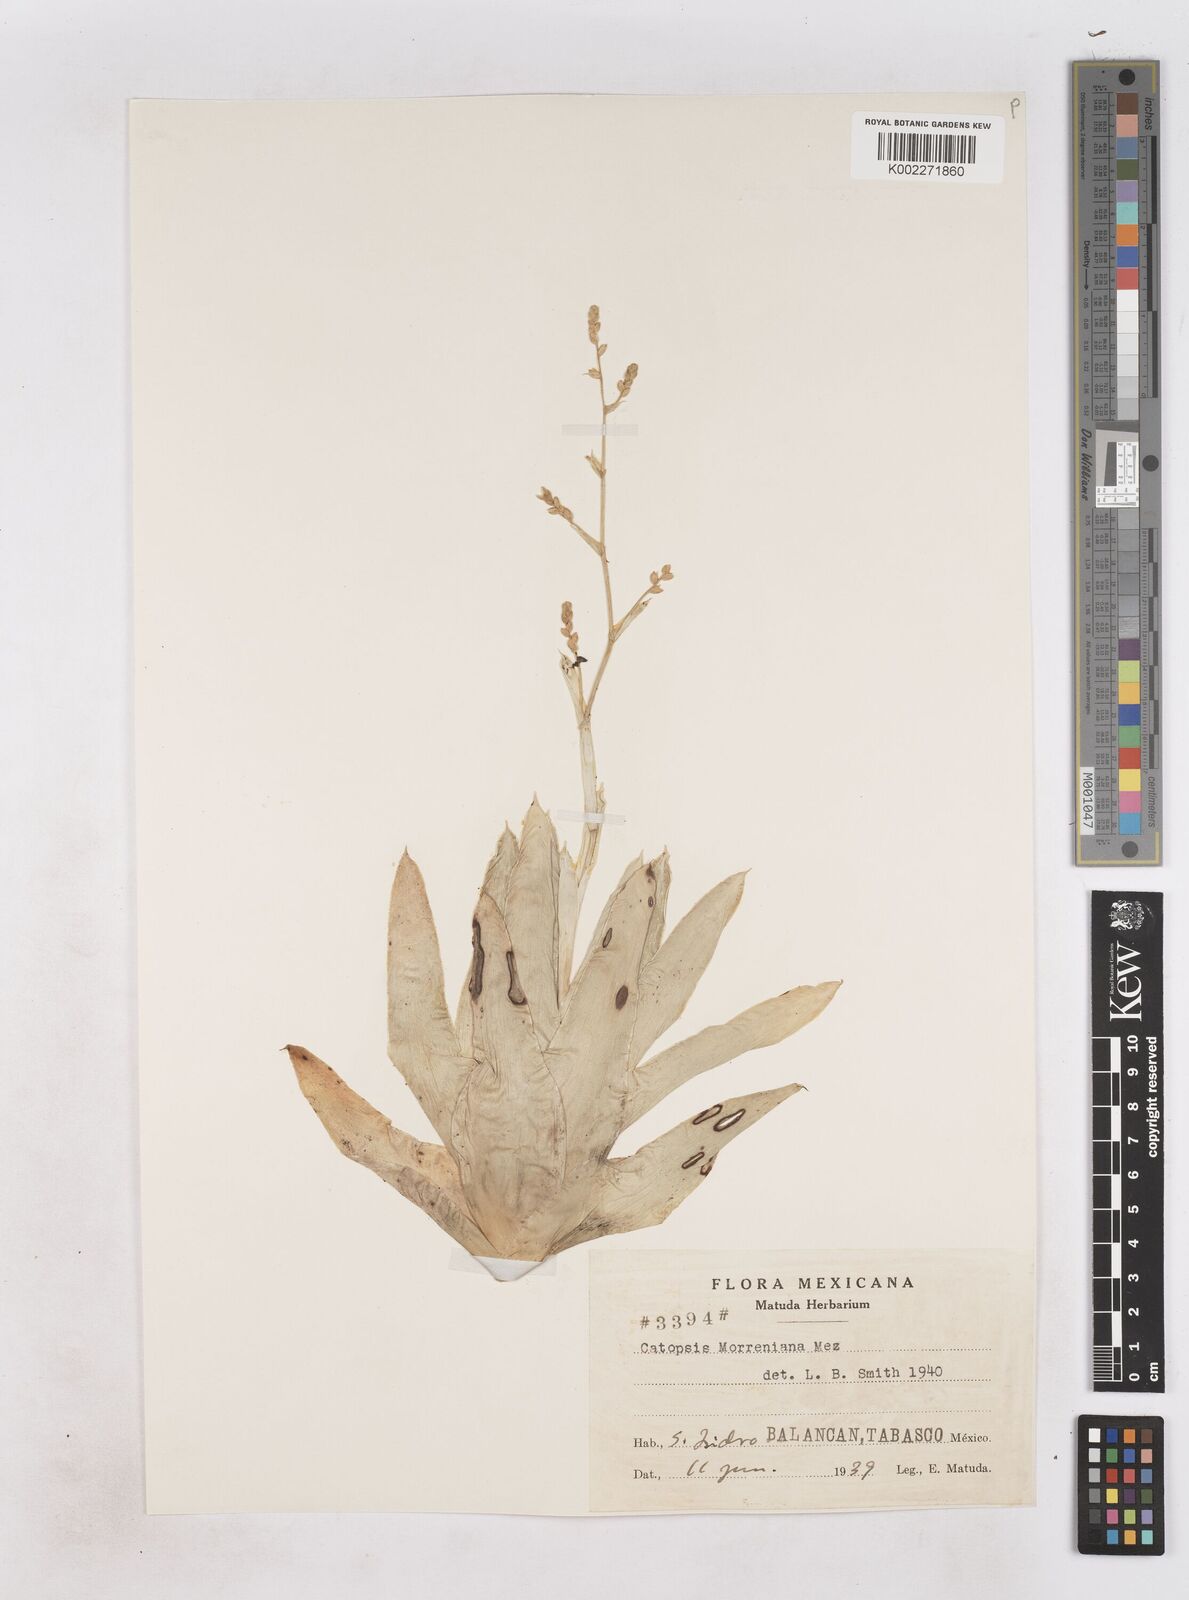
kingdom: Plantae
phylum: Tracheophyta
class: Liliopsida
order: Poales
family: Bromeliaceae
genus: Catopsis
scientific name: Catopsis morreniana
